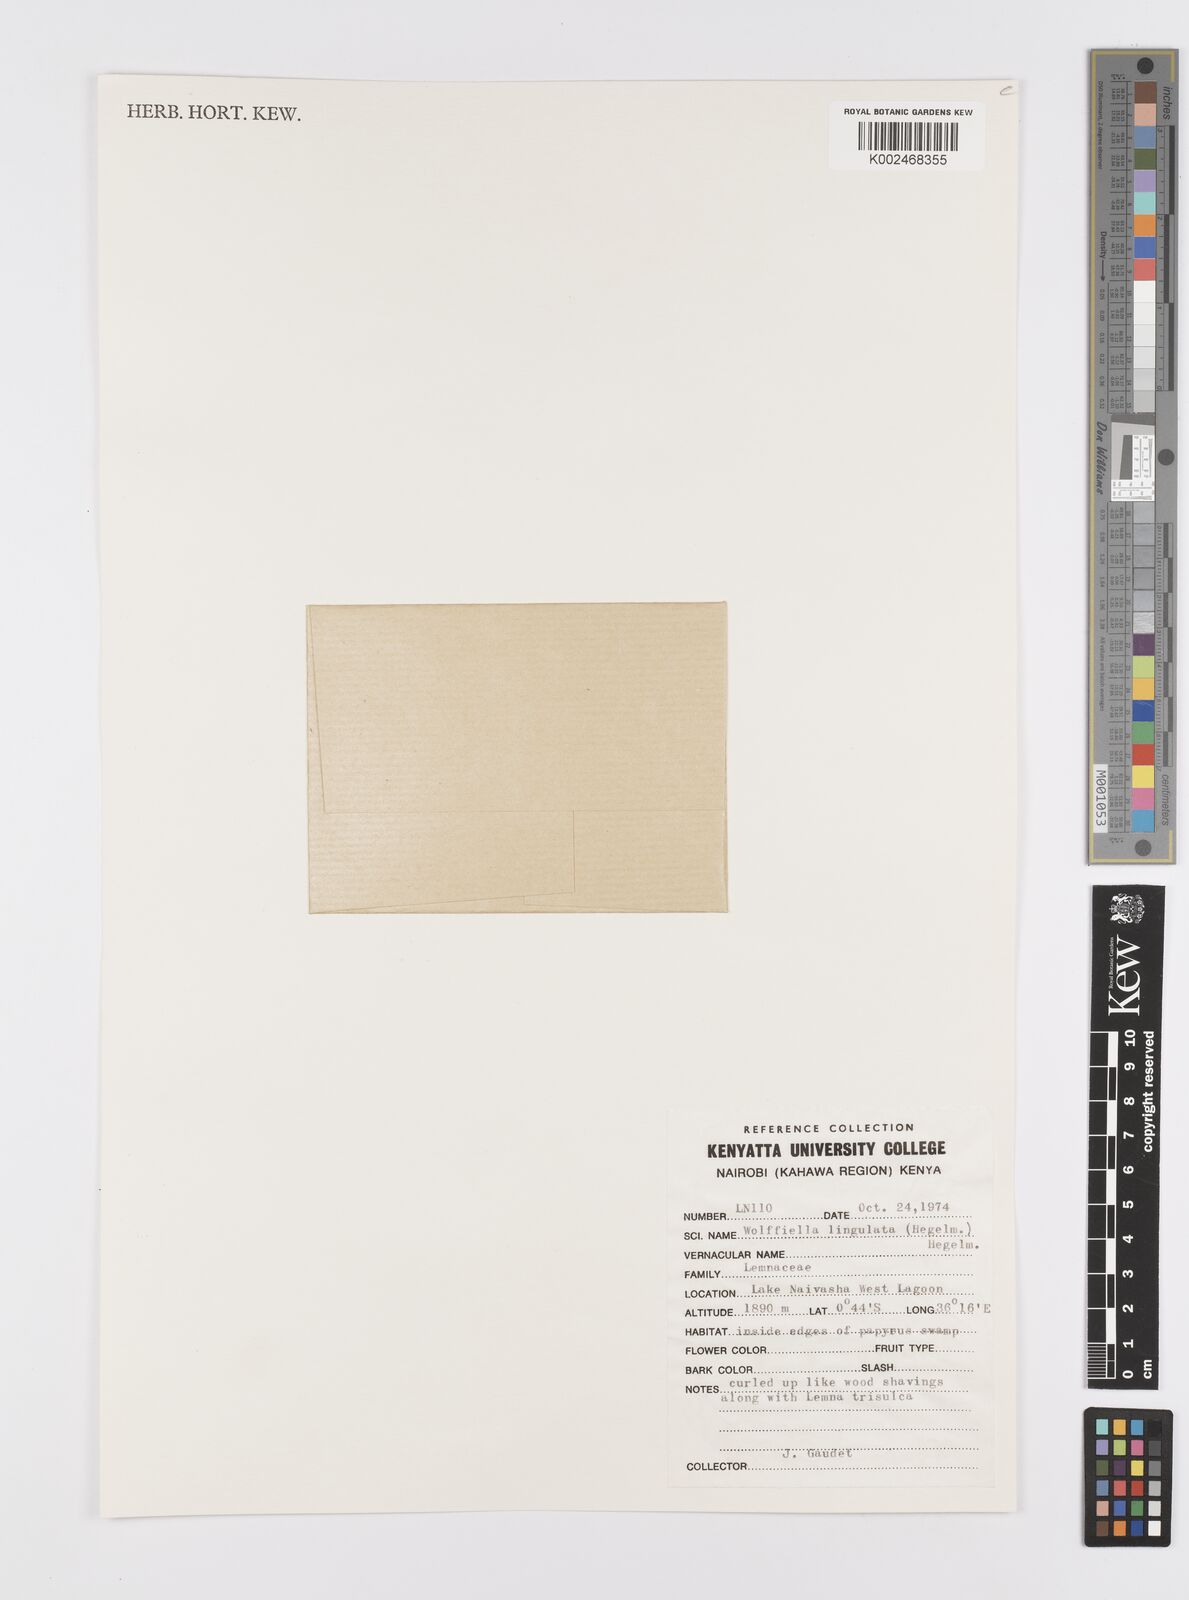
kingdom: Plantae
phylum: Tracheophyta
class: Liliopsida
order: Alismatales
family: Araceae
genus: Wolffiella
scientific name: Wolffiella lingulata
